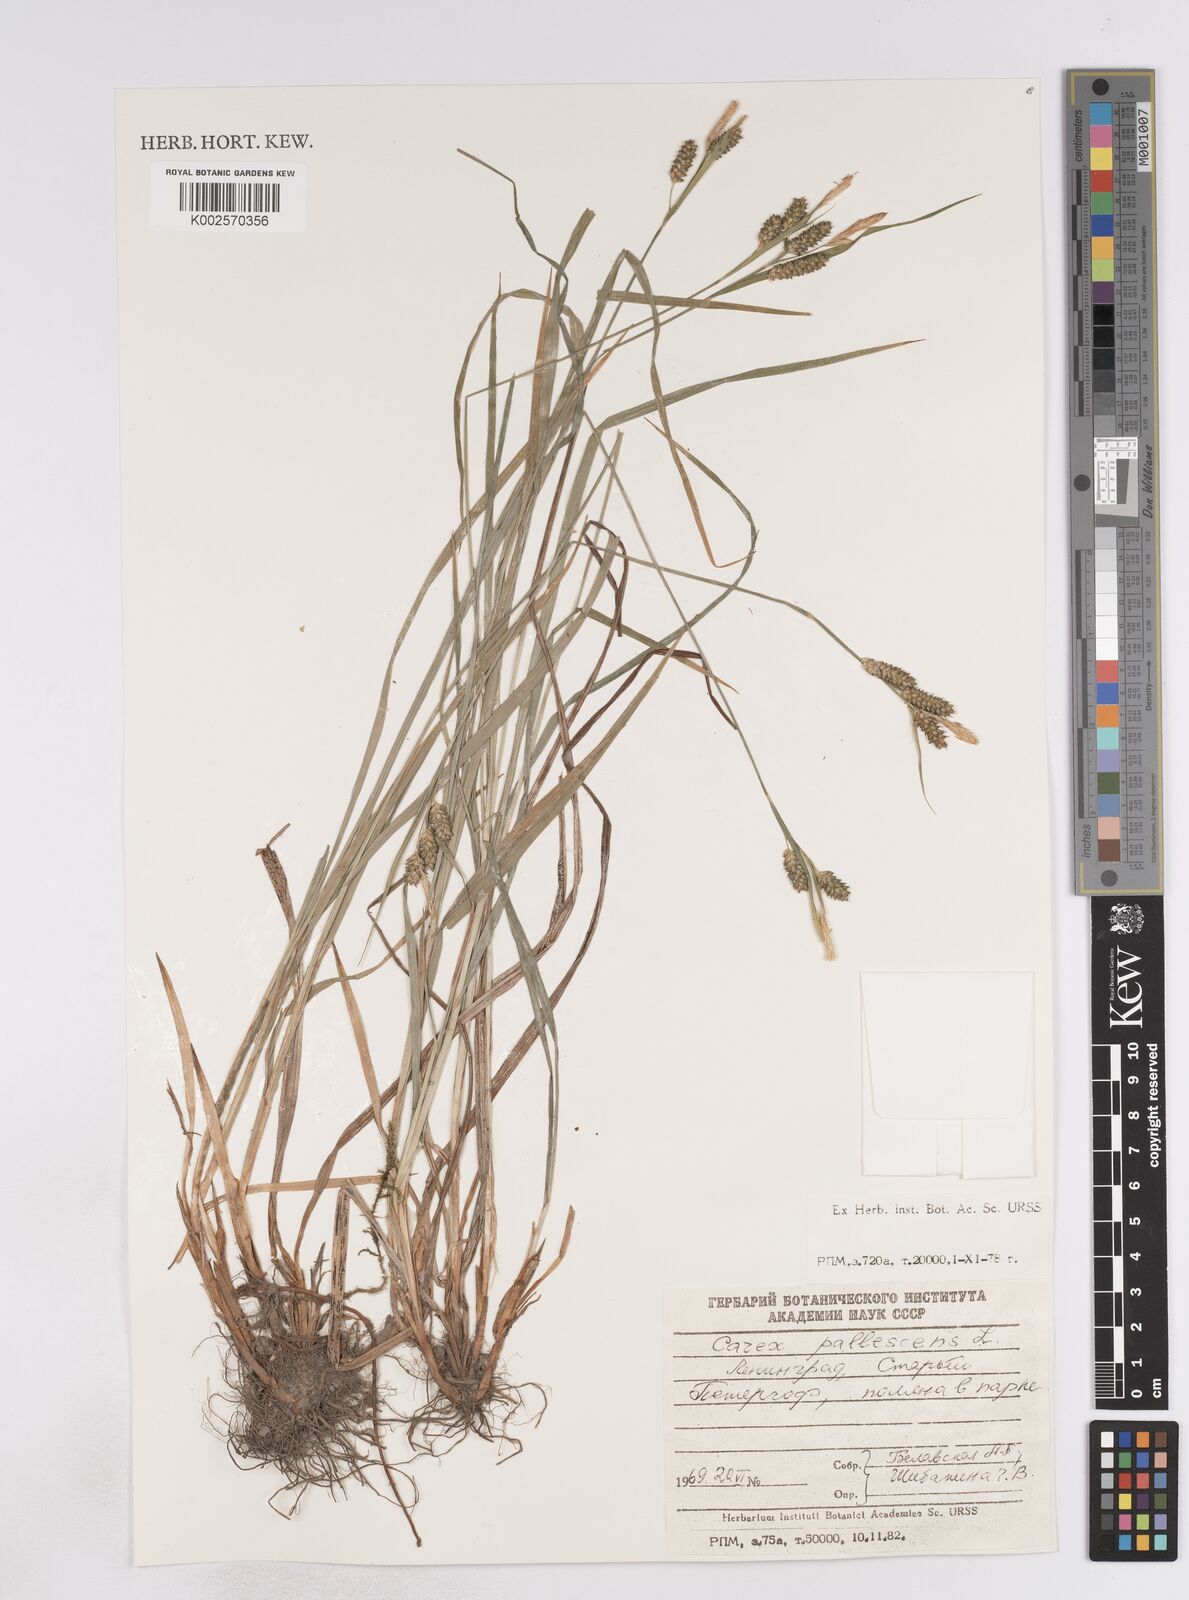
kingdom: Plantae
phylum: Tracheophyta
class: Liliopsida
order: Poales
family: Cyperaceae
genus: Carex
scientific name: Carex pallescens
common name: Pale sedge
